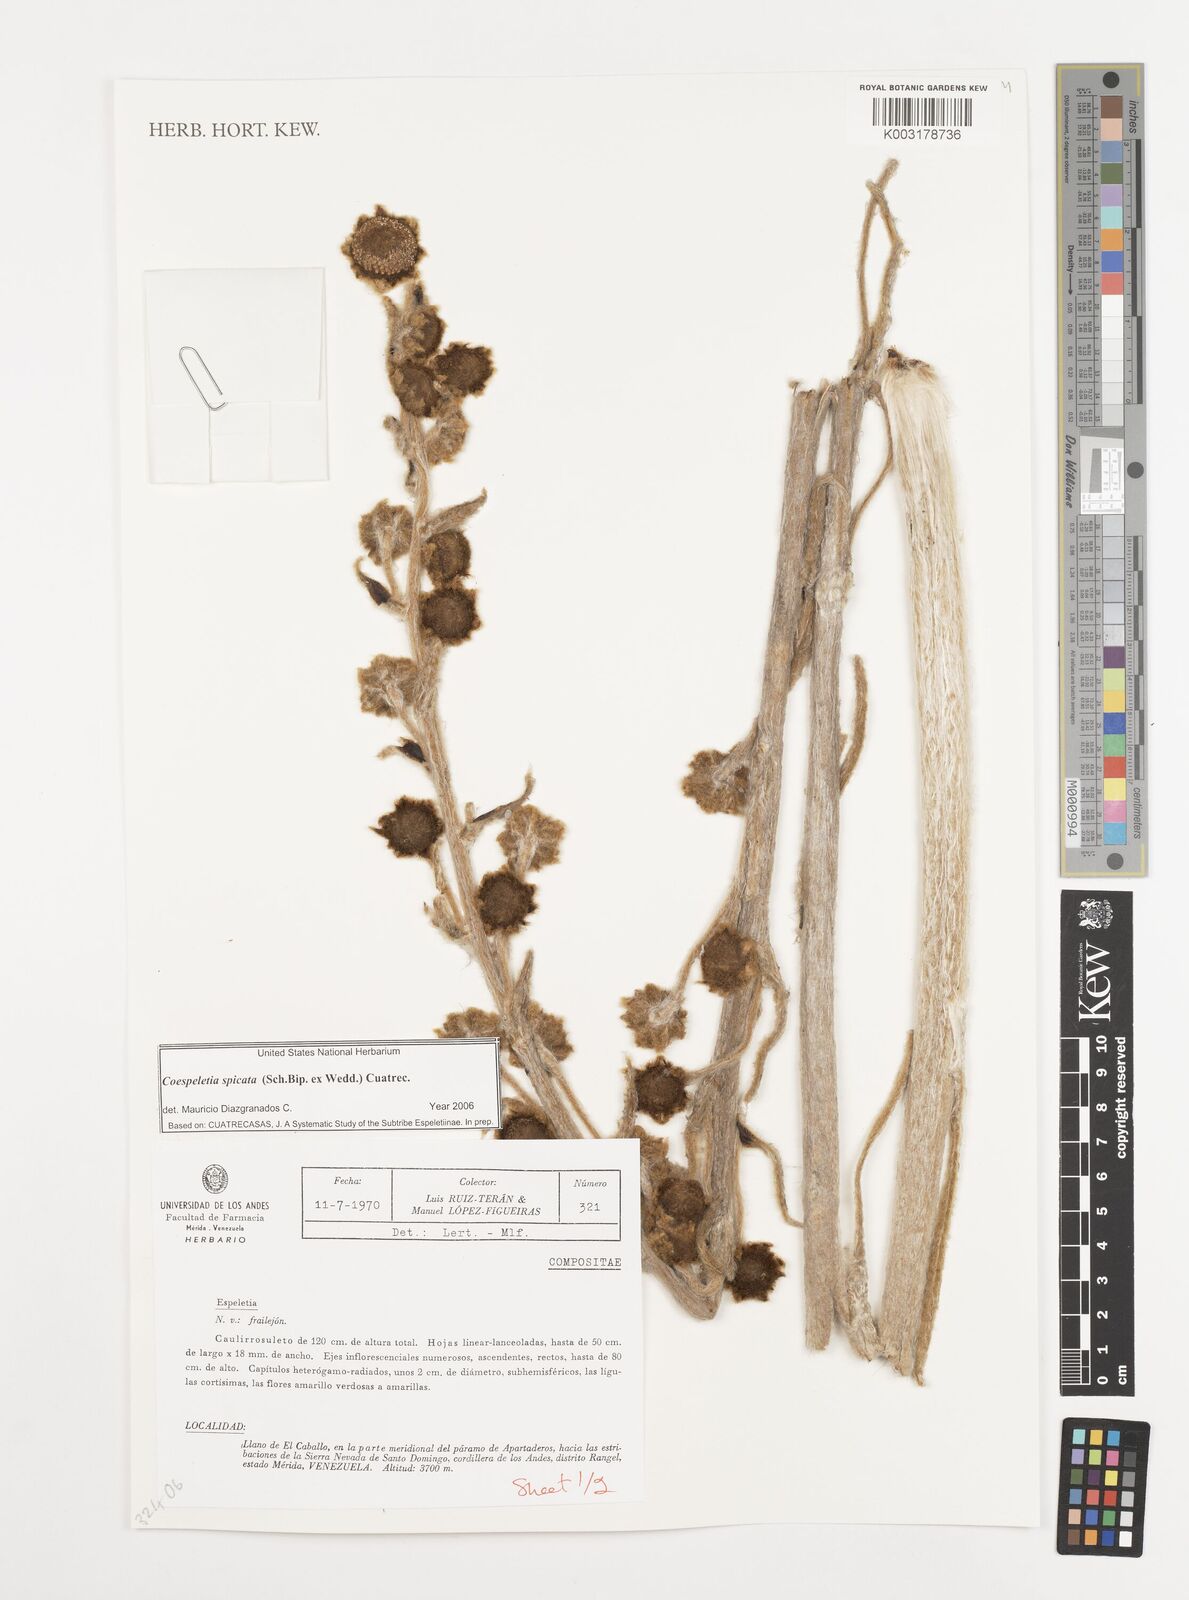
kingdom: Plantae
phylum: Tracheophyta
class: Magnoliopsida
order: Asterales
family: Asteraceae
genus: Espeletia
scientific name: Espeletia spicata
